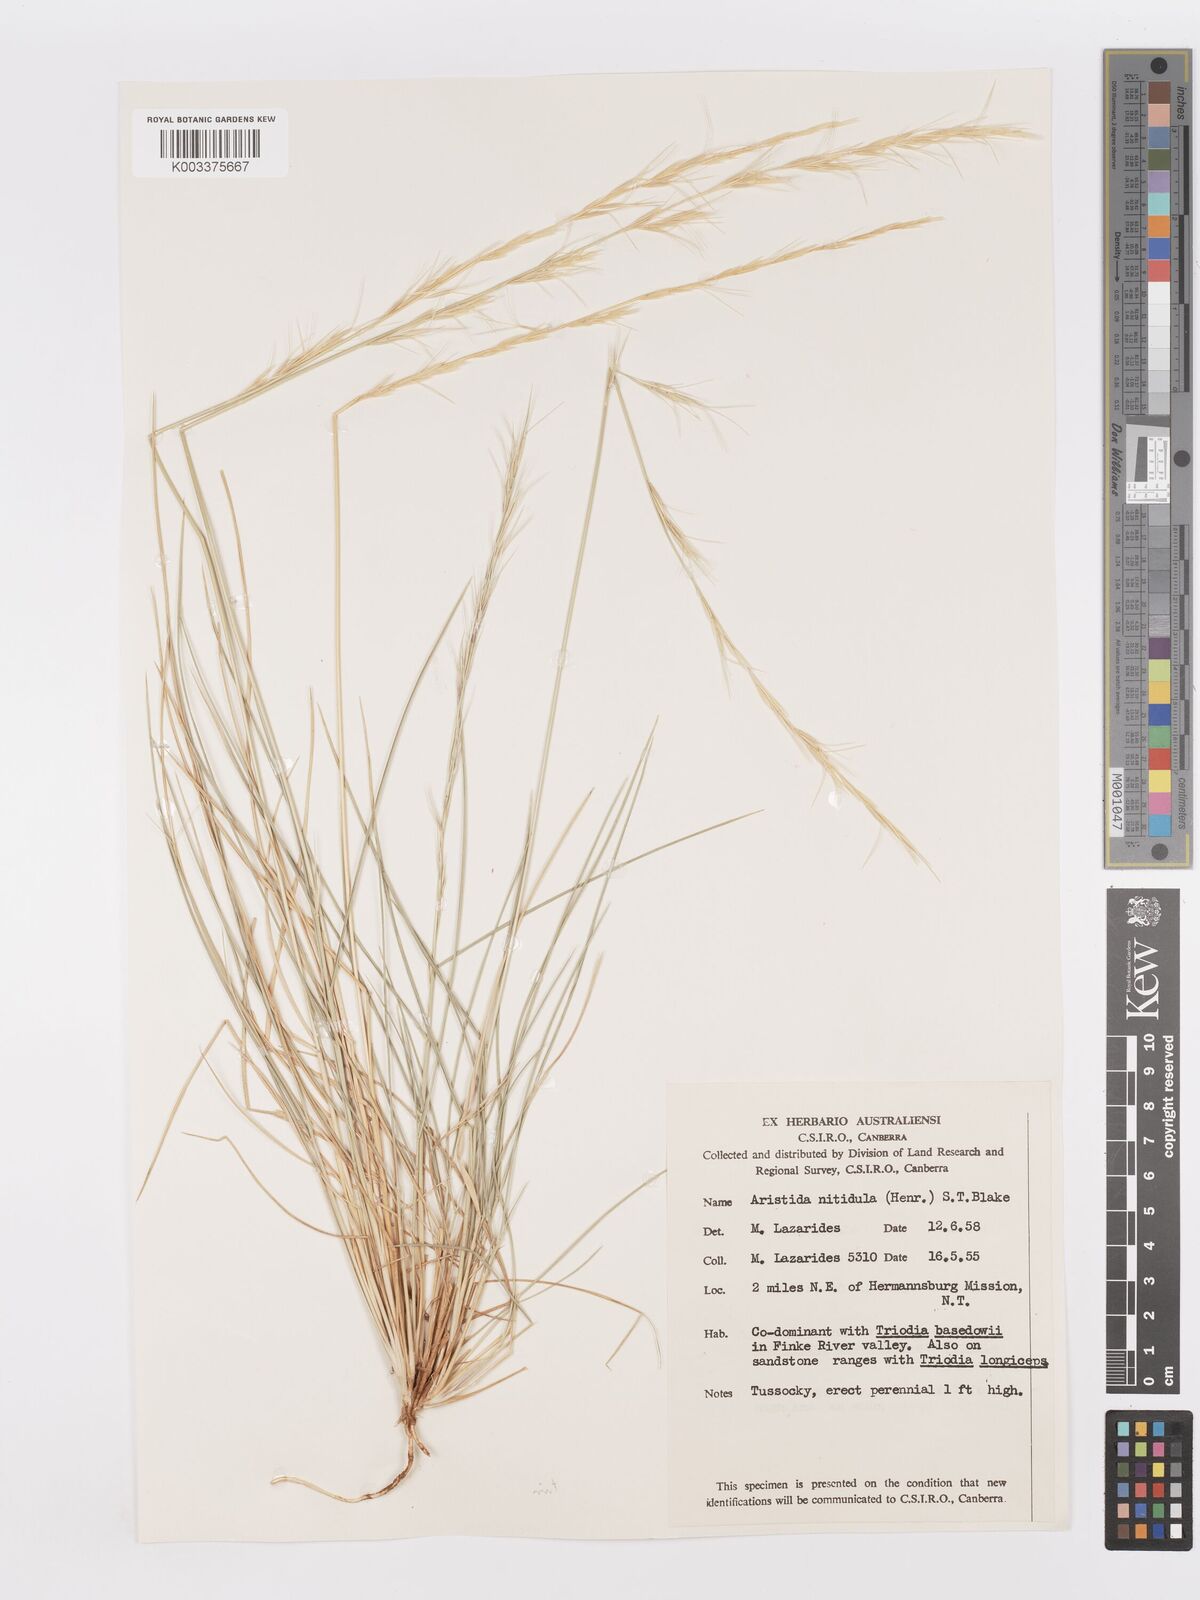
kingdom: Plantae
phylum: Tracheophyta
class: Liliopsida
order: Poales
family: Poaceae
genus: Aristida
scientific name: Aristida nitidula
